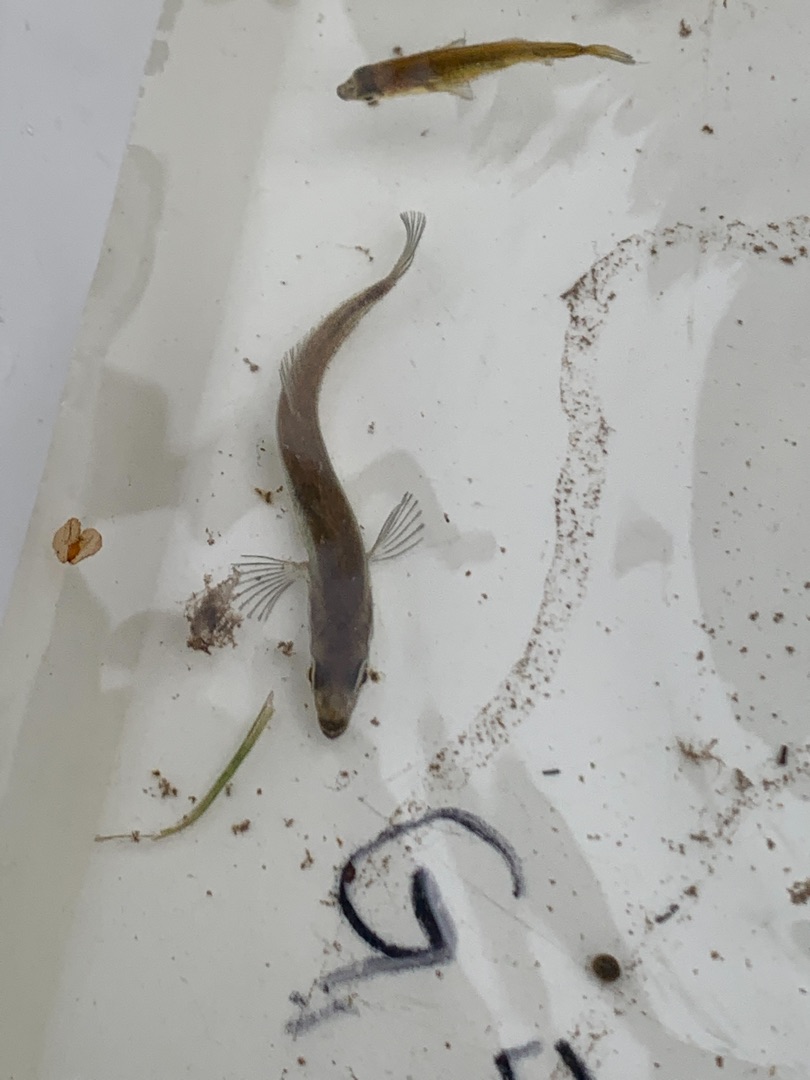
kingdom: Animalia
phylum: Chordata
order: Gasterosteiformes
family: Gasterosteidae
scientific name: Gasterosteidae
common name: Hundestejlefamilien
